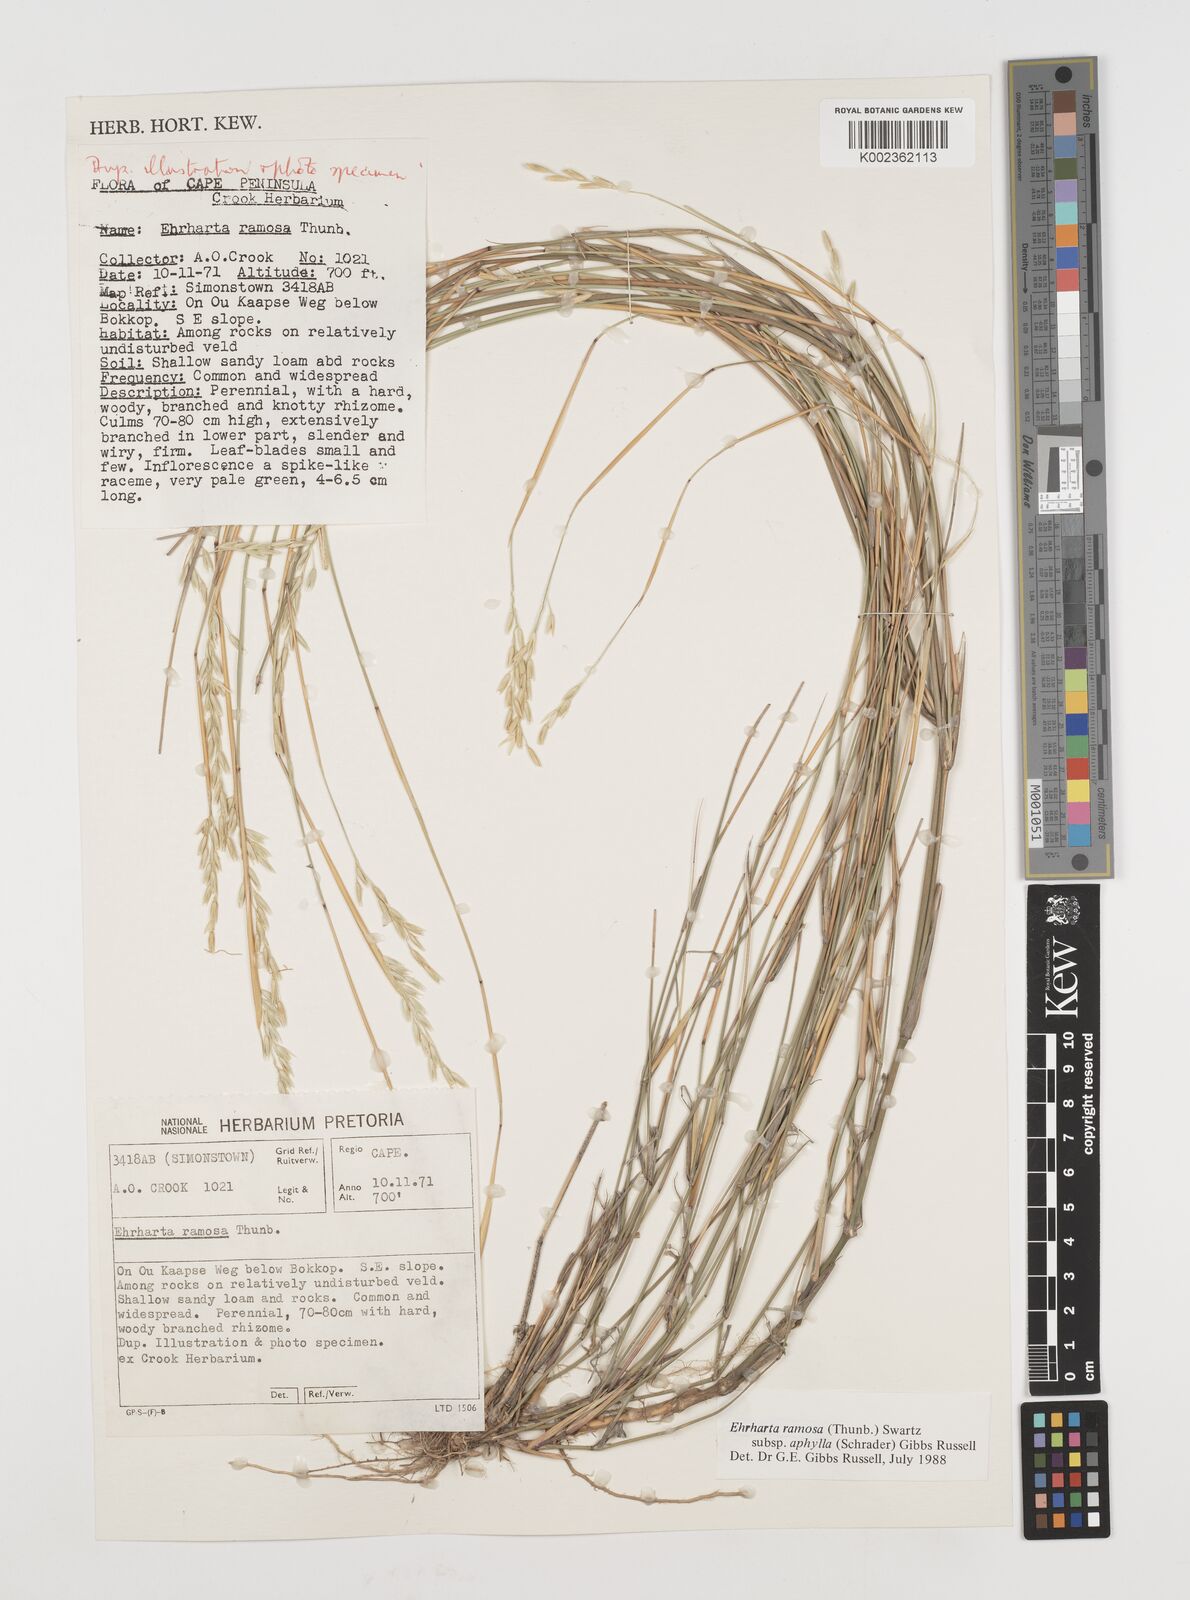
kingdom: Plantae
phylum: Tracheophyta
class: Liliopsida
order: Poales
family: Poaceae
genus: Ehrharta
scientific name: Ehrharta digyna
